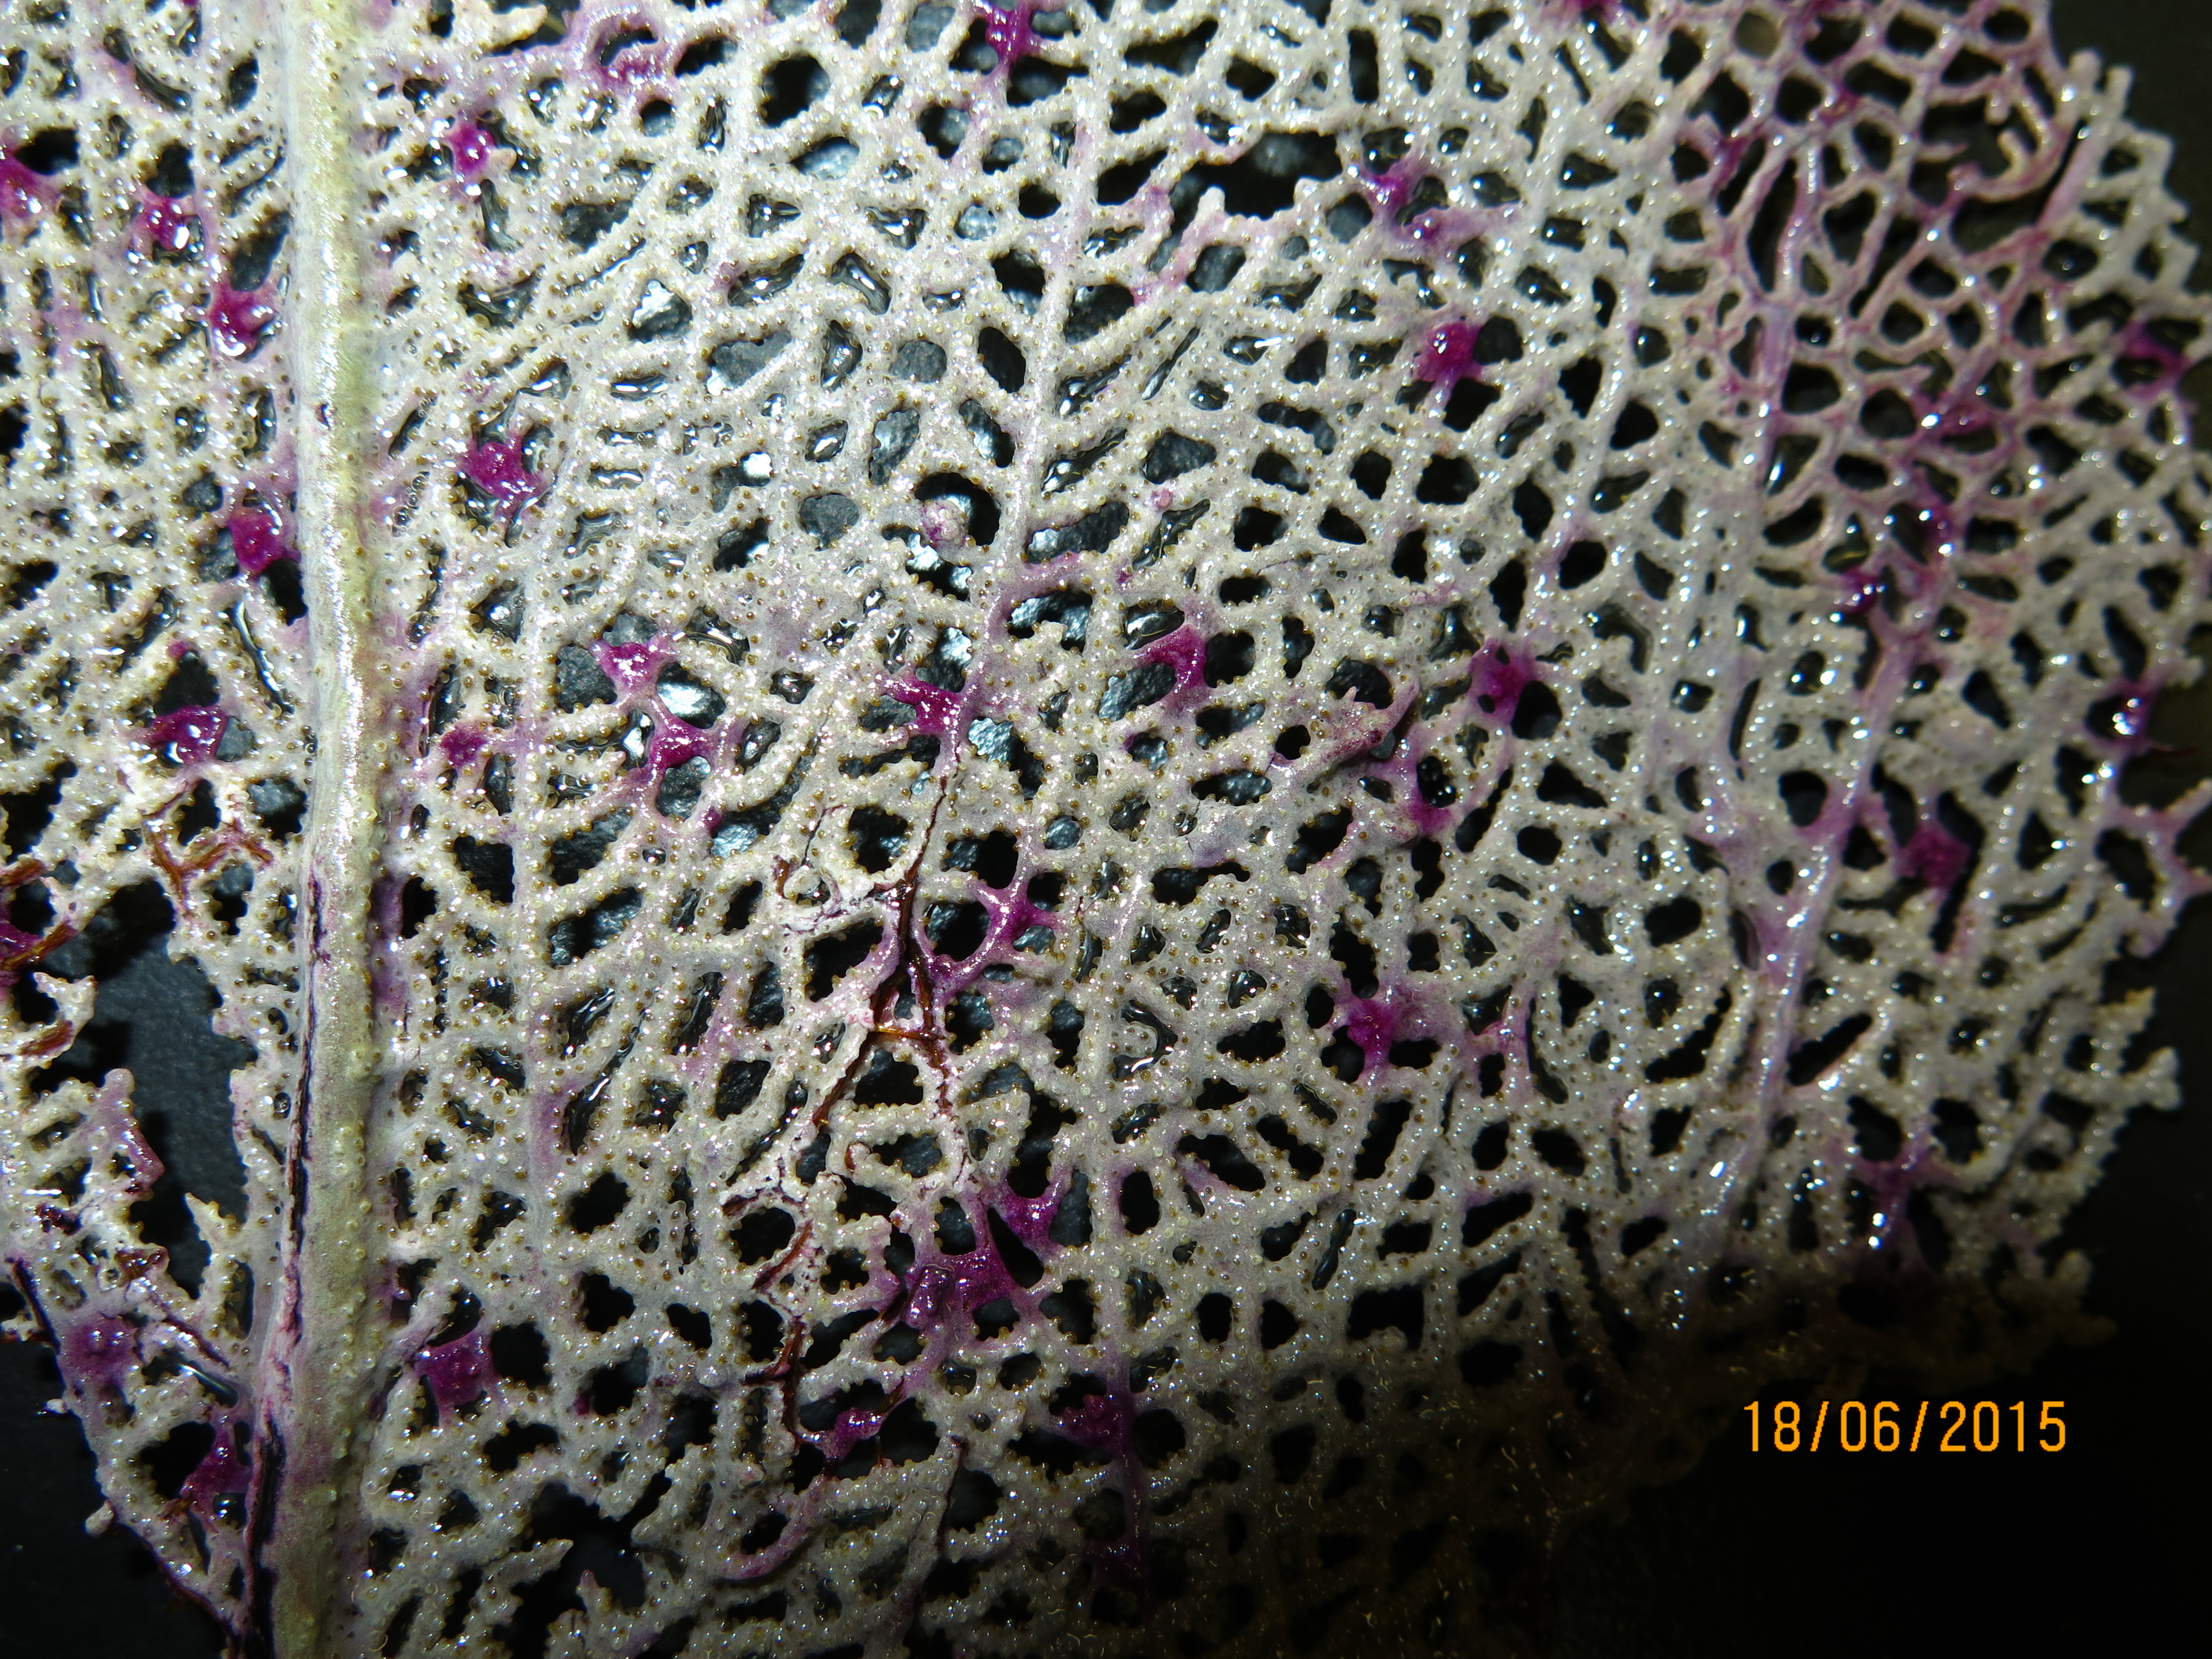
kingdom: Animalia
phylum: Cnidaria
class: Anthozoa
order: Malacalcyonacea
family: Gorgoniidae
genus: Gorgonia
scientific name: Gorgonia ventalina
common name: Common sea fan
